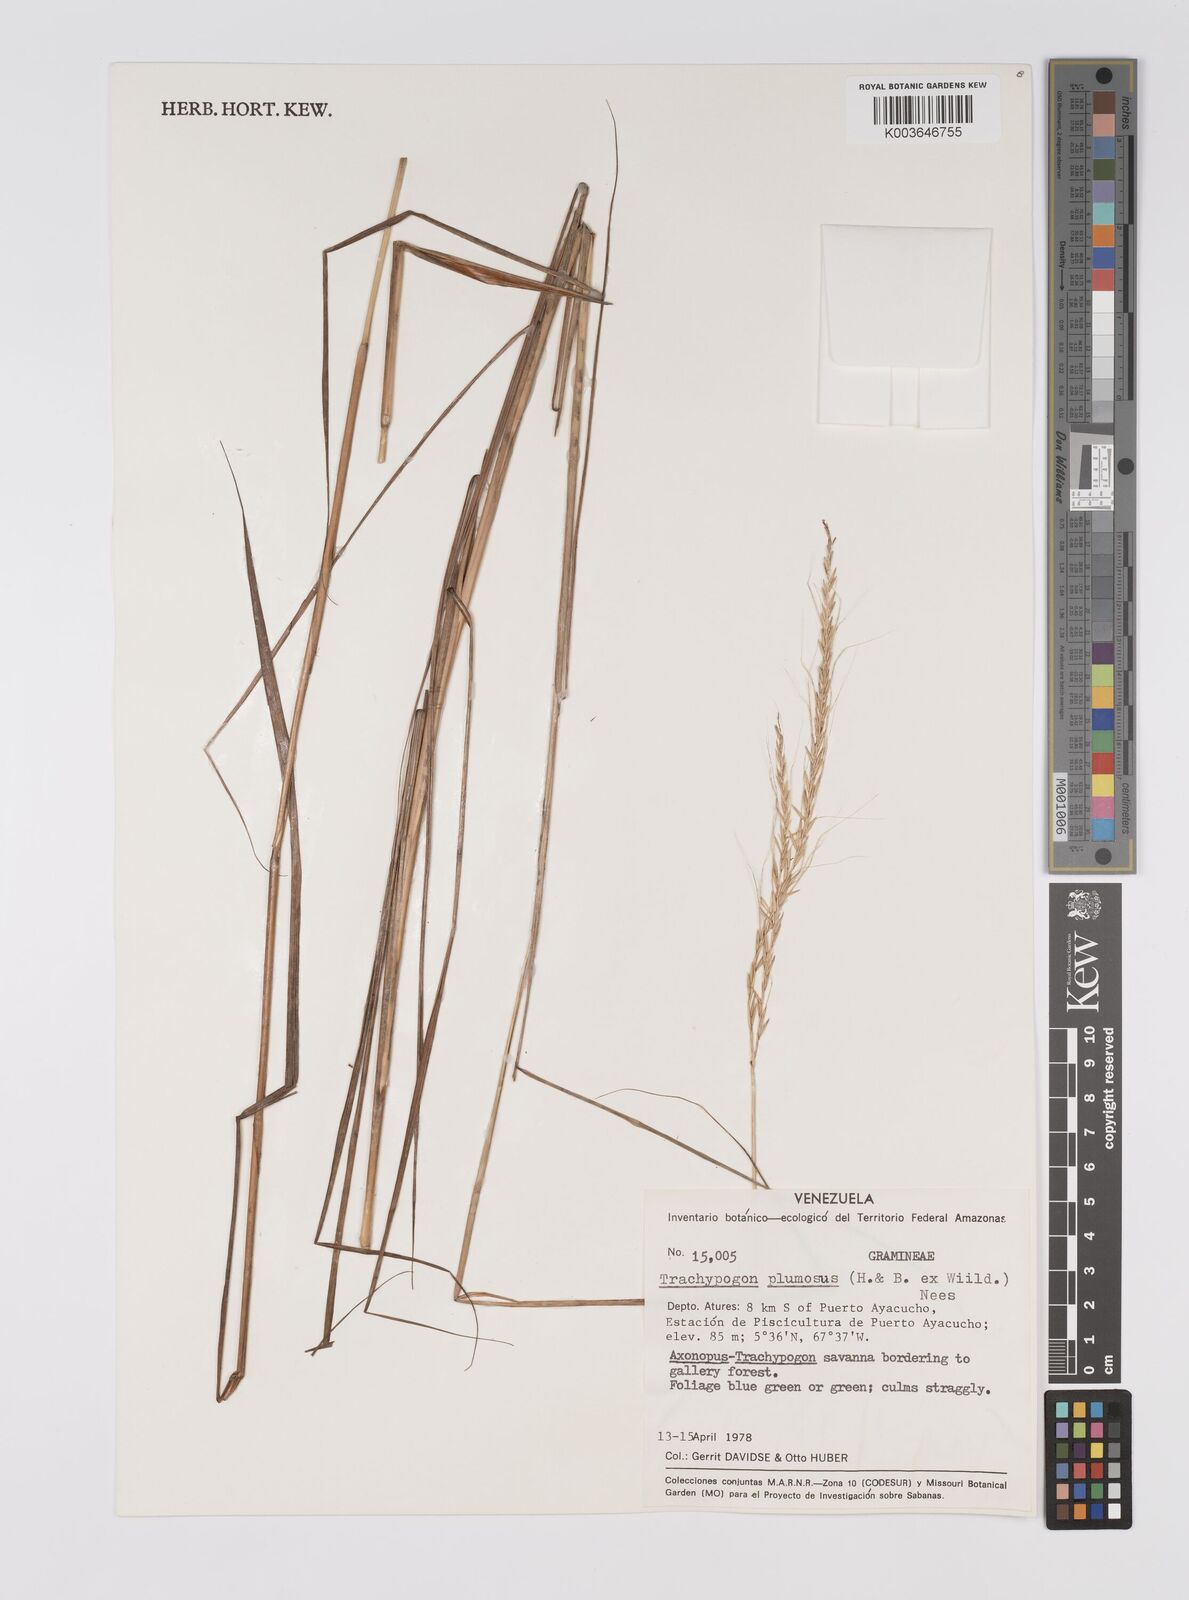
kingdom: Plantae
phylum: Tracheophyta
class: Liliopsida
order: Poales
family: Poaceae
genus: Trachypogon
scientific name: Trachypogon spicatus
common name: Crinkle-awn
